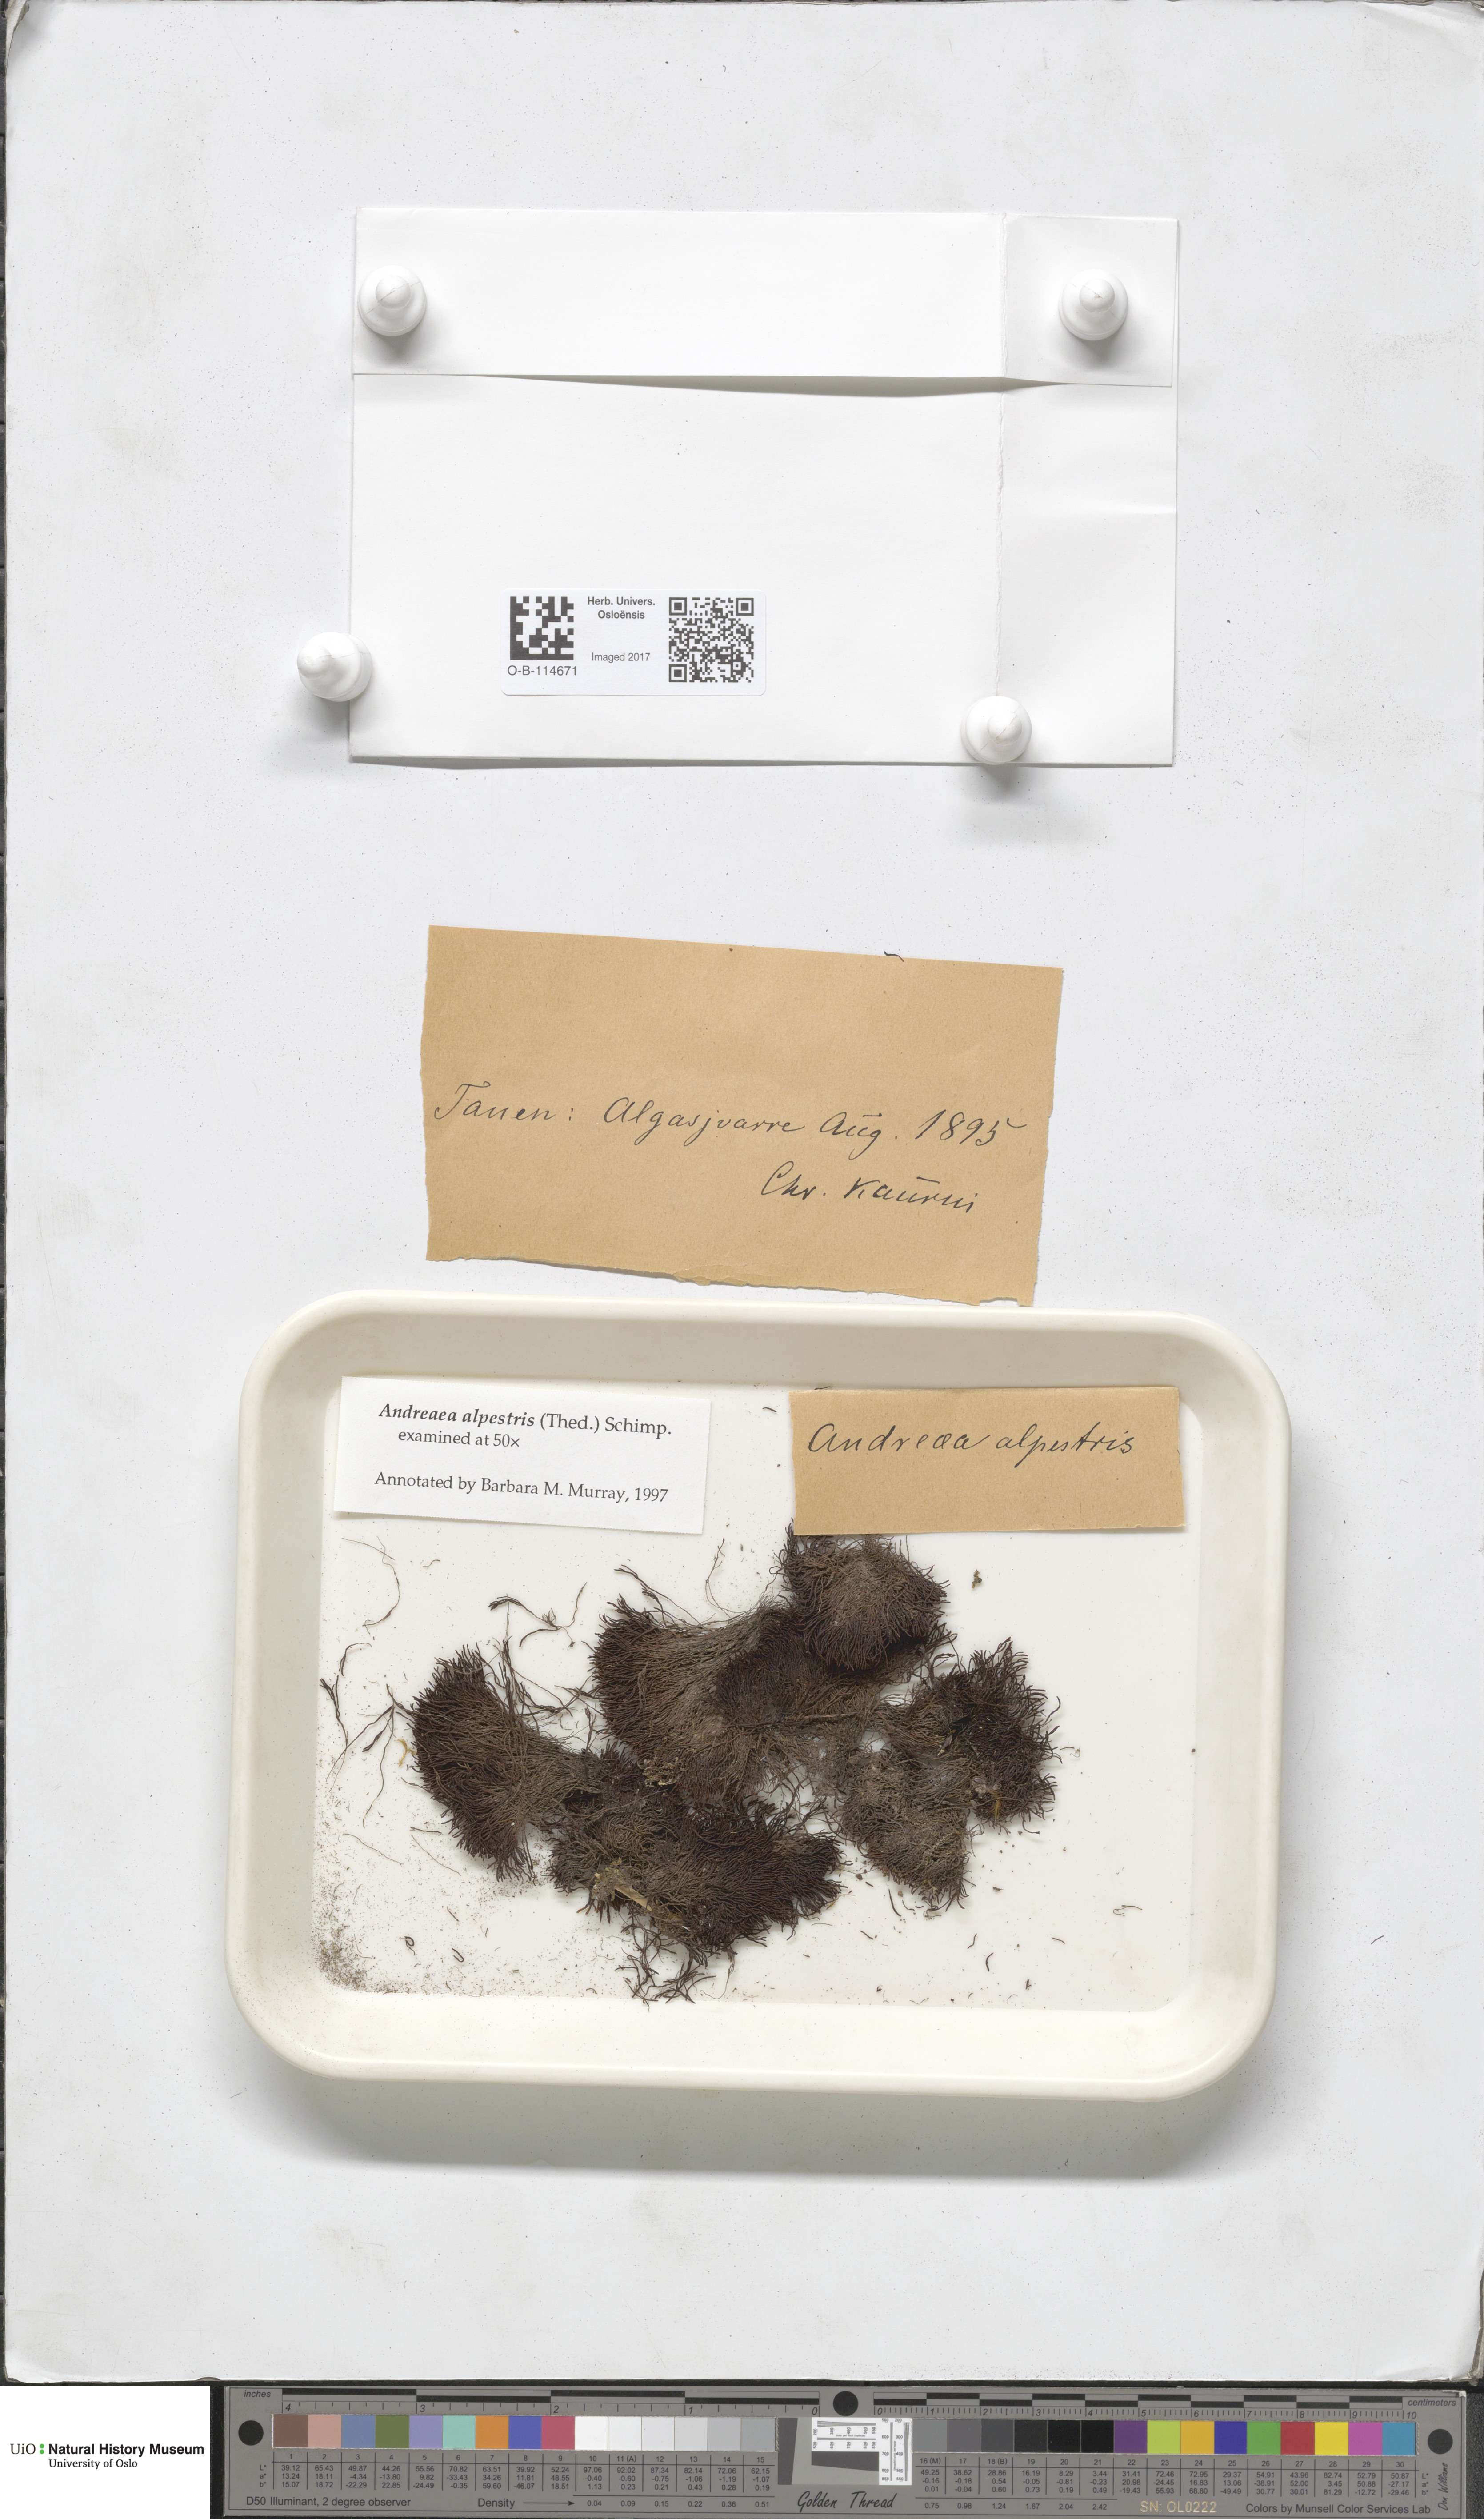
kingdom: Plantae
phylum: Bryophyta
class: Andreaeopsida
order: Andreaeales
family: Andreaeaceae
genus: Andreaea
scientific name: Andreaea alpestris
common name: Slender rock-moss
